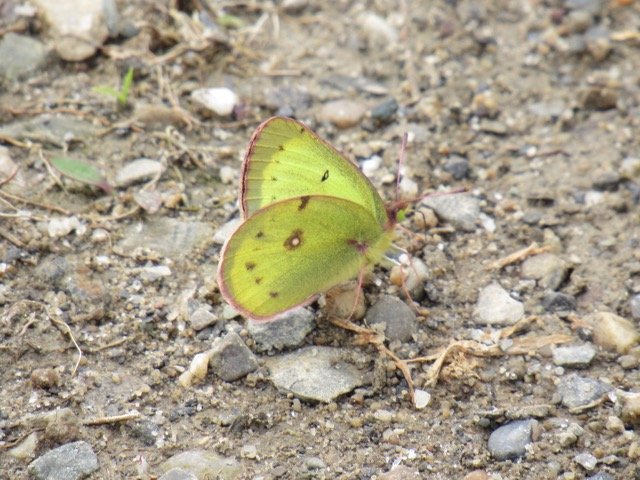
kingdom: Animalia
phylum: Arthropoda
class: Insecta
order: Lepidoptera
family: Pieridae
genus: Colias
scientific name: Colias philodice
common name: Clouded Sulphur
